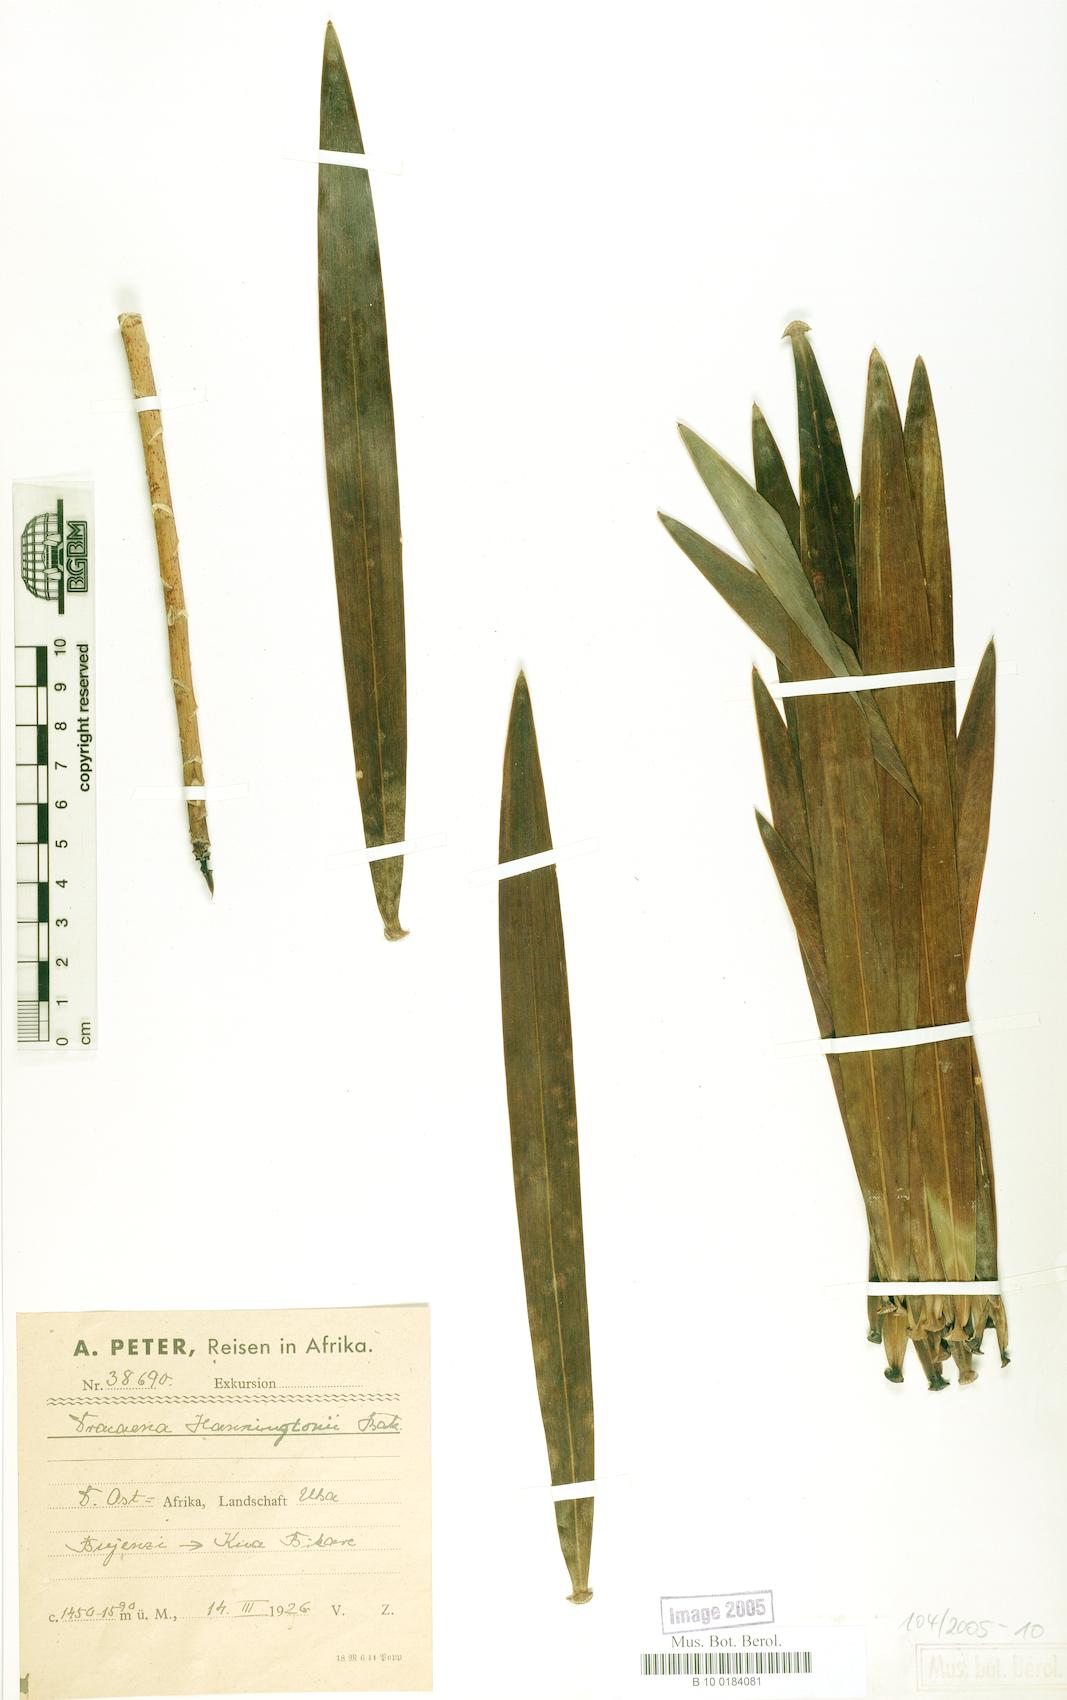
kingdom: Plantae
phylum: Tracheophyta
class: Liliopsida
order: Asparagales
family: Asparagaceae
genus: Dracaena
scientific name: Dracaena mannii
